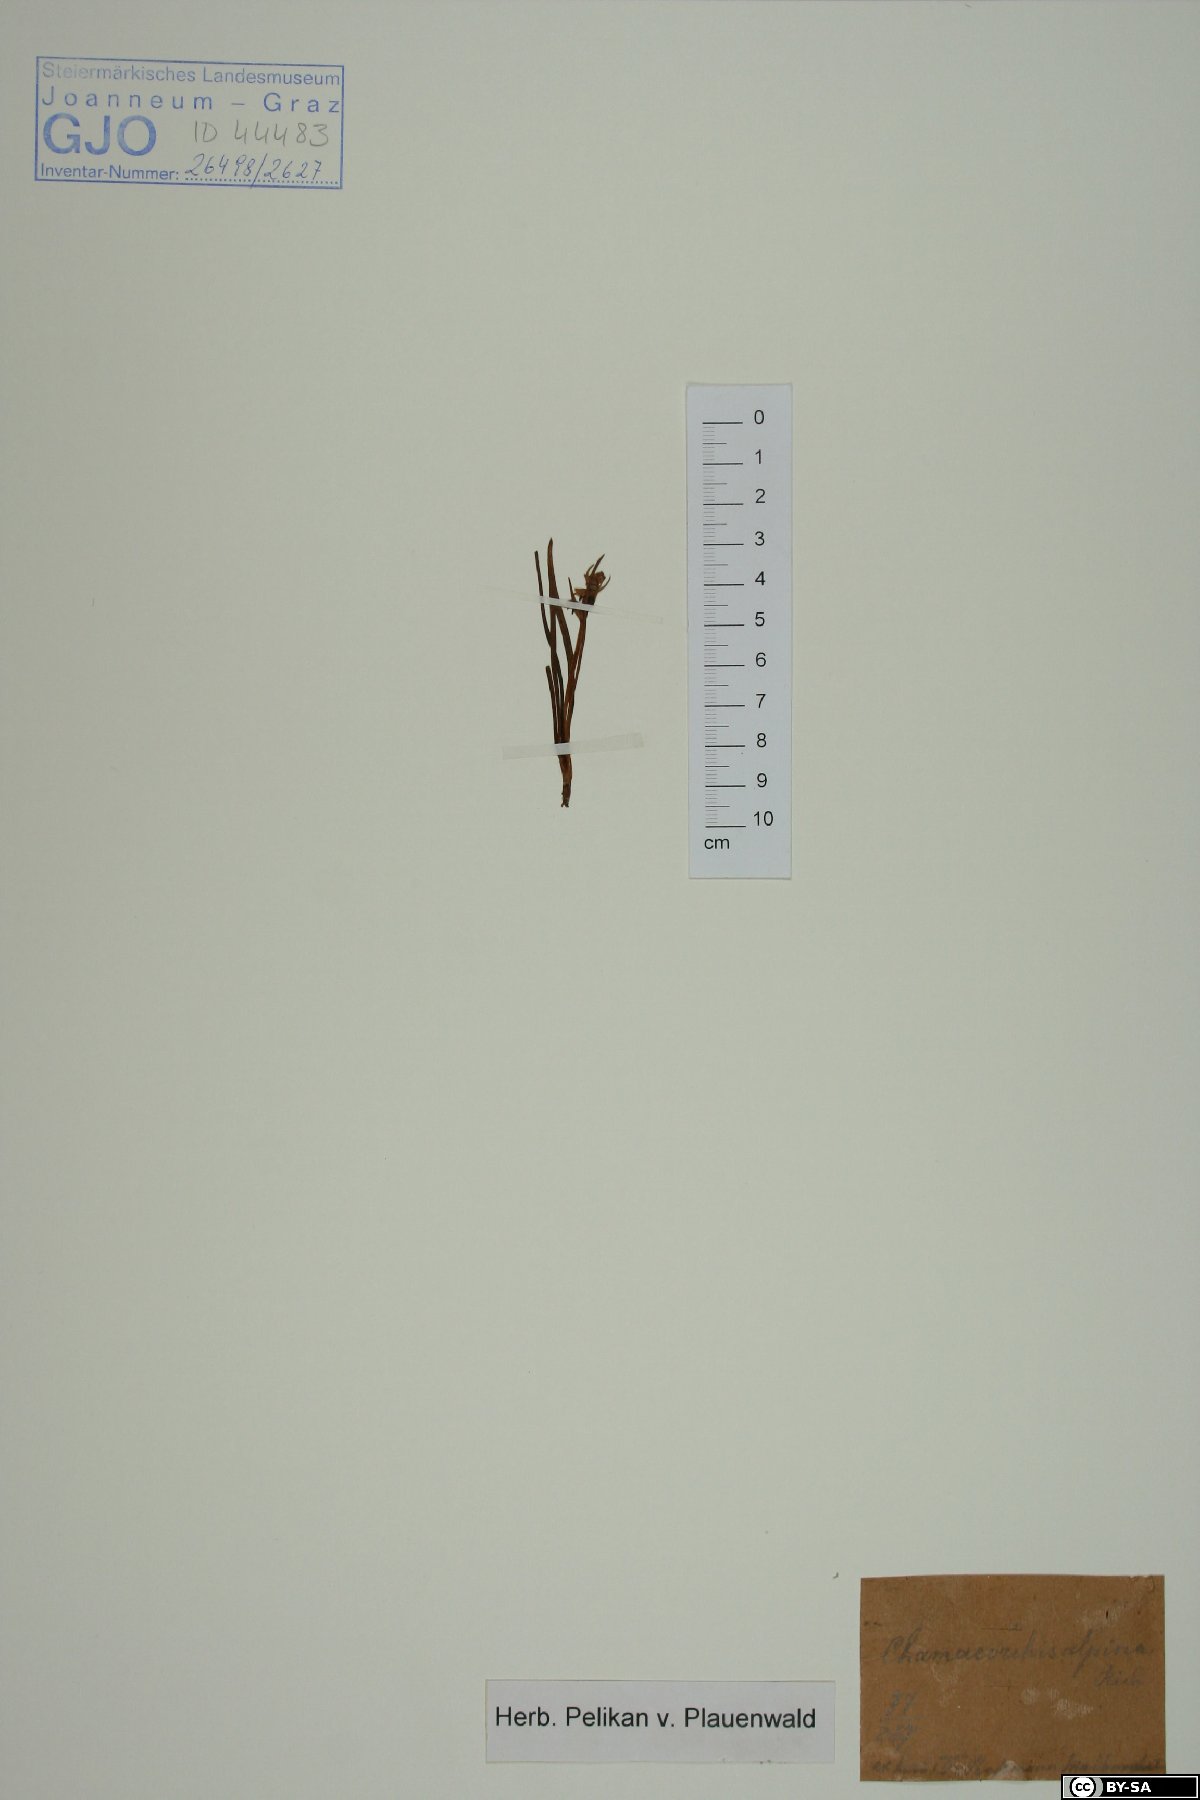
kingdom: Plantae
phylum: Tracheophyta
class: Liliopsida
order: Asparagales
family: Orchidaceae
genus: Chamorchis
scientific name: Chamorchis alpina
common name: Alpine chamorchis
